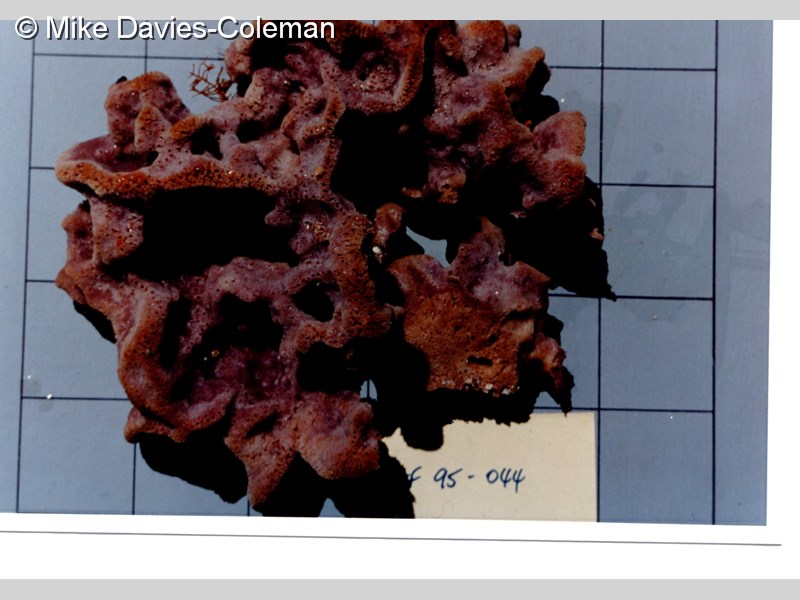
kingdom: Animalia
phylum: Porifera
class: Demospongiae
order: Haplosclerida
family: Niphatidae
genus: Cribrochalina
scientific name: Cribrochalina
